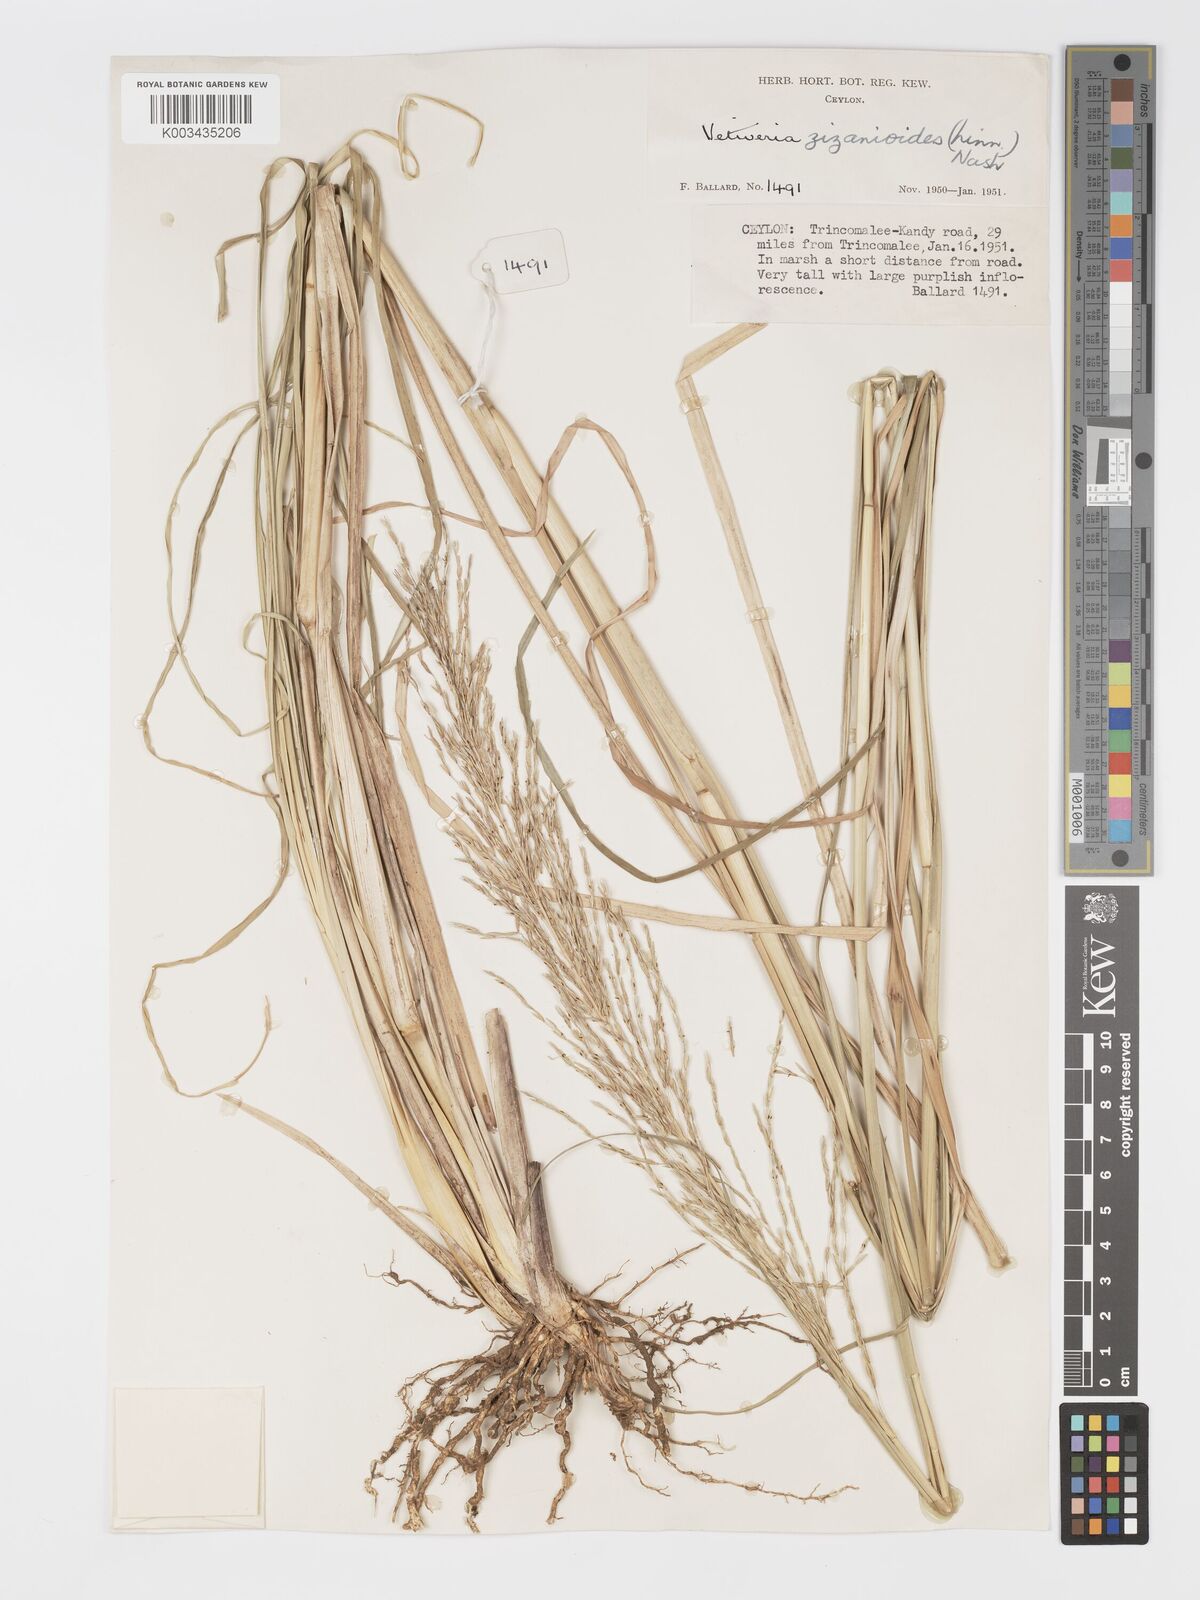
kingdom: Plantae
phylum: Tracheophyta
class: Liliopsida
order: Poales
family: Poaceae
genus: Chrysopogon
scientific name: Chrysopogon zizanioides
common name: False beardgrass
